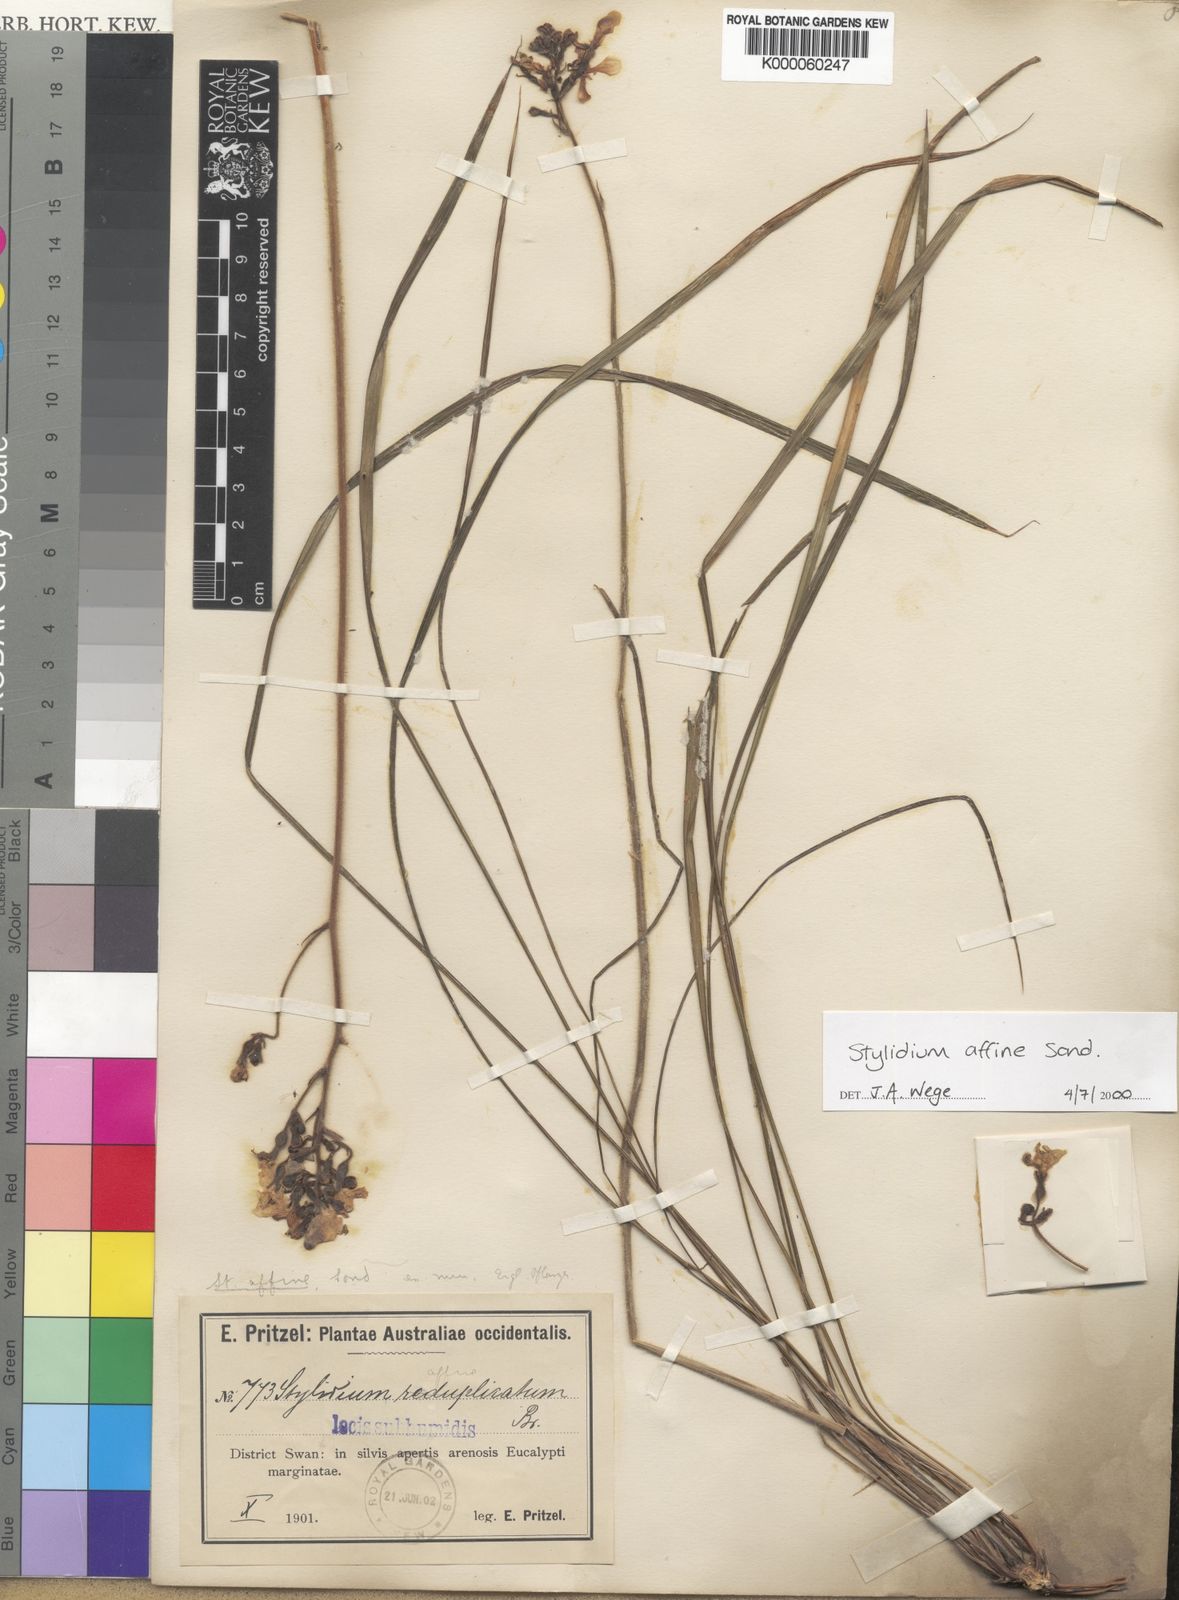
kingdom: Plantae
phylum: Tracheophyta
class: Magnoliopsida
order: Asterales
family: Stylidiaceae
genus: Stylidium
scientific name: Stylidium affine
